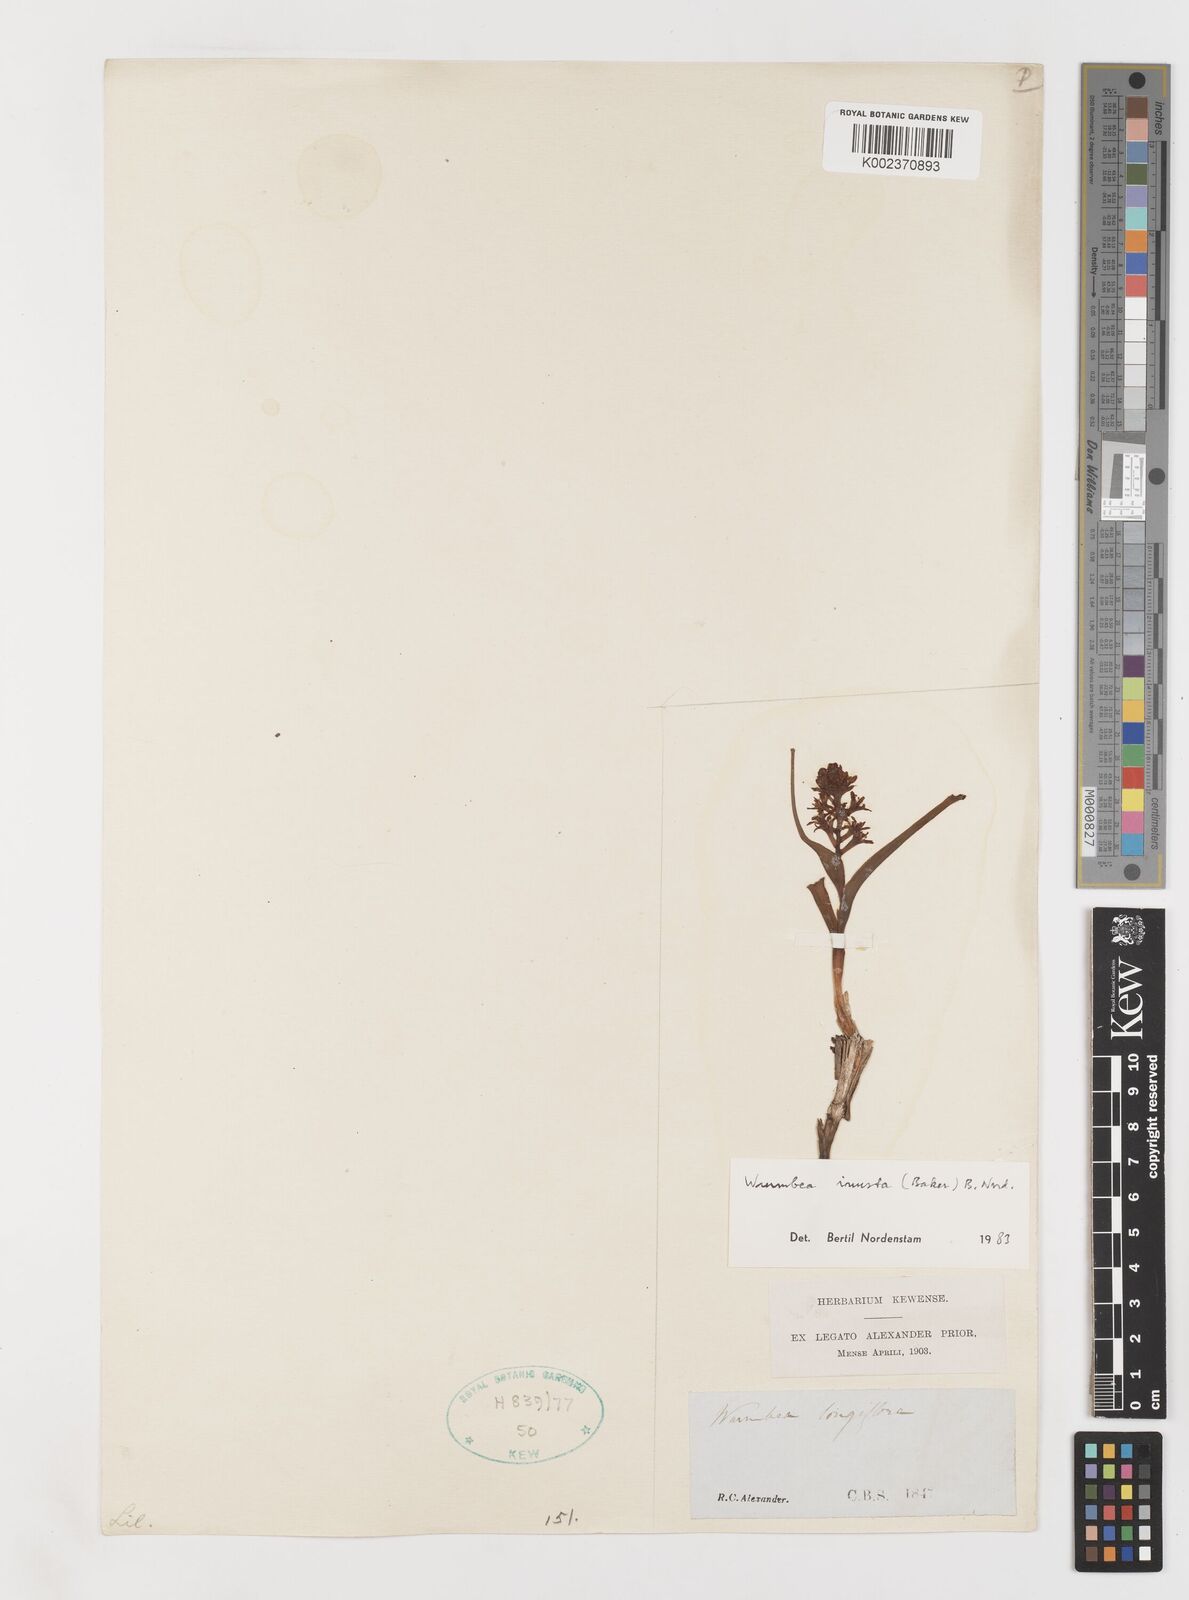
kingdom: Plantae
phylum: Tracheophyta
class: Liliopsida
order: Liliales
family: Colchicaceae
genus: Wurmbea
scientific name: Wurmbea inusta
